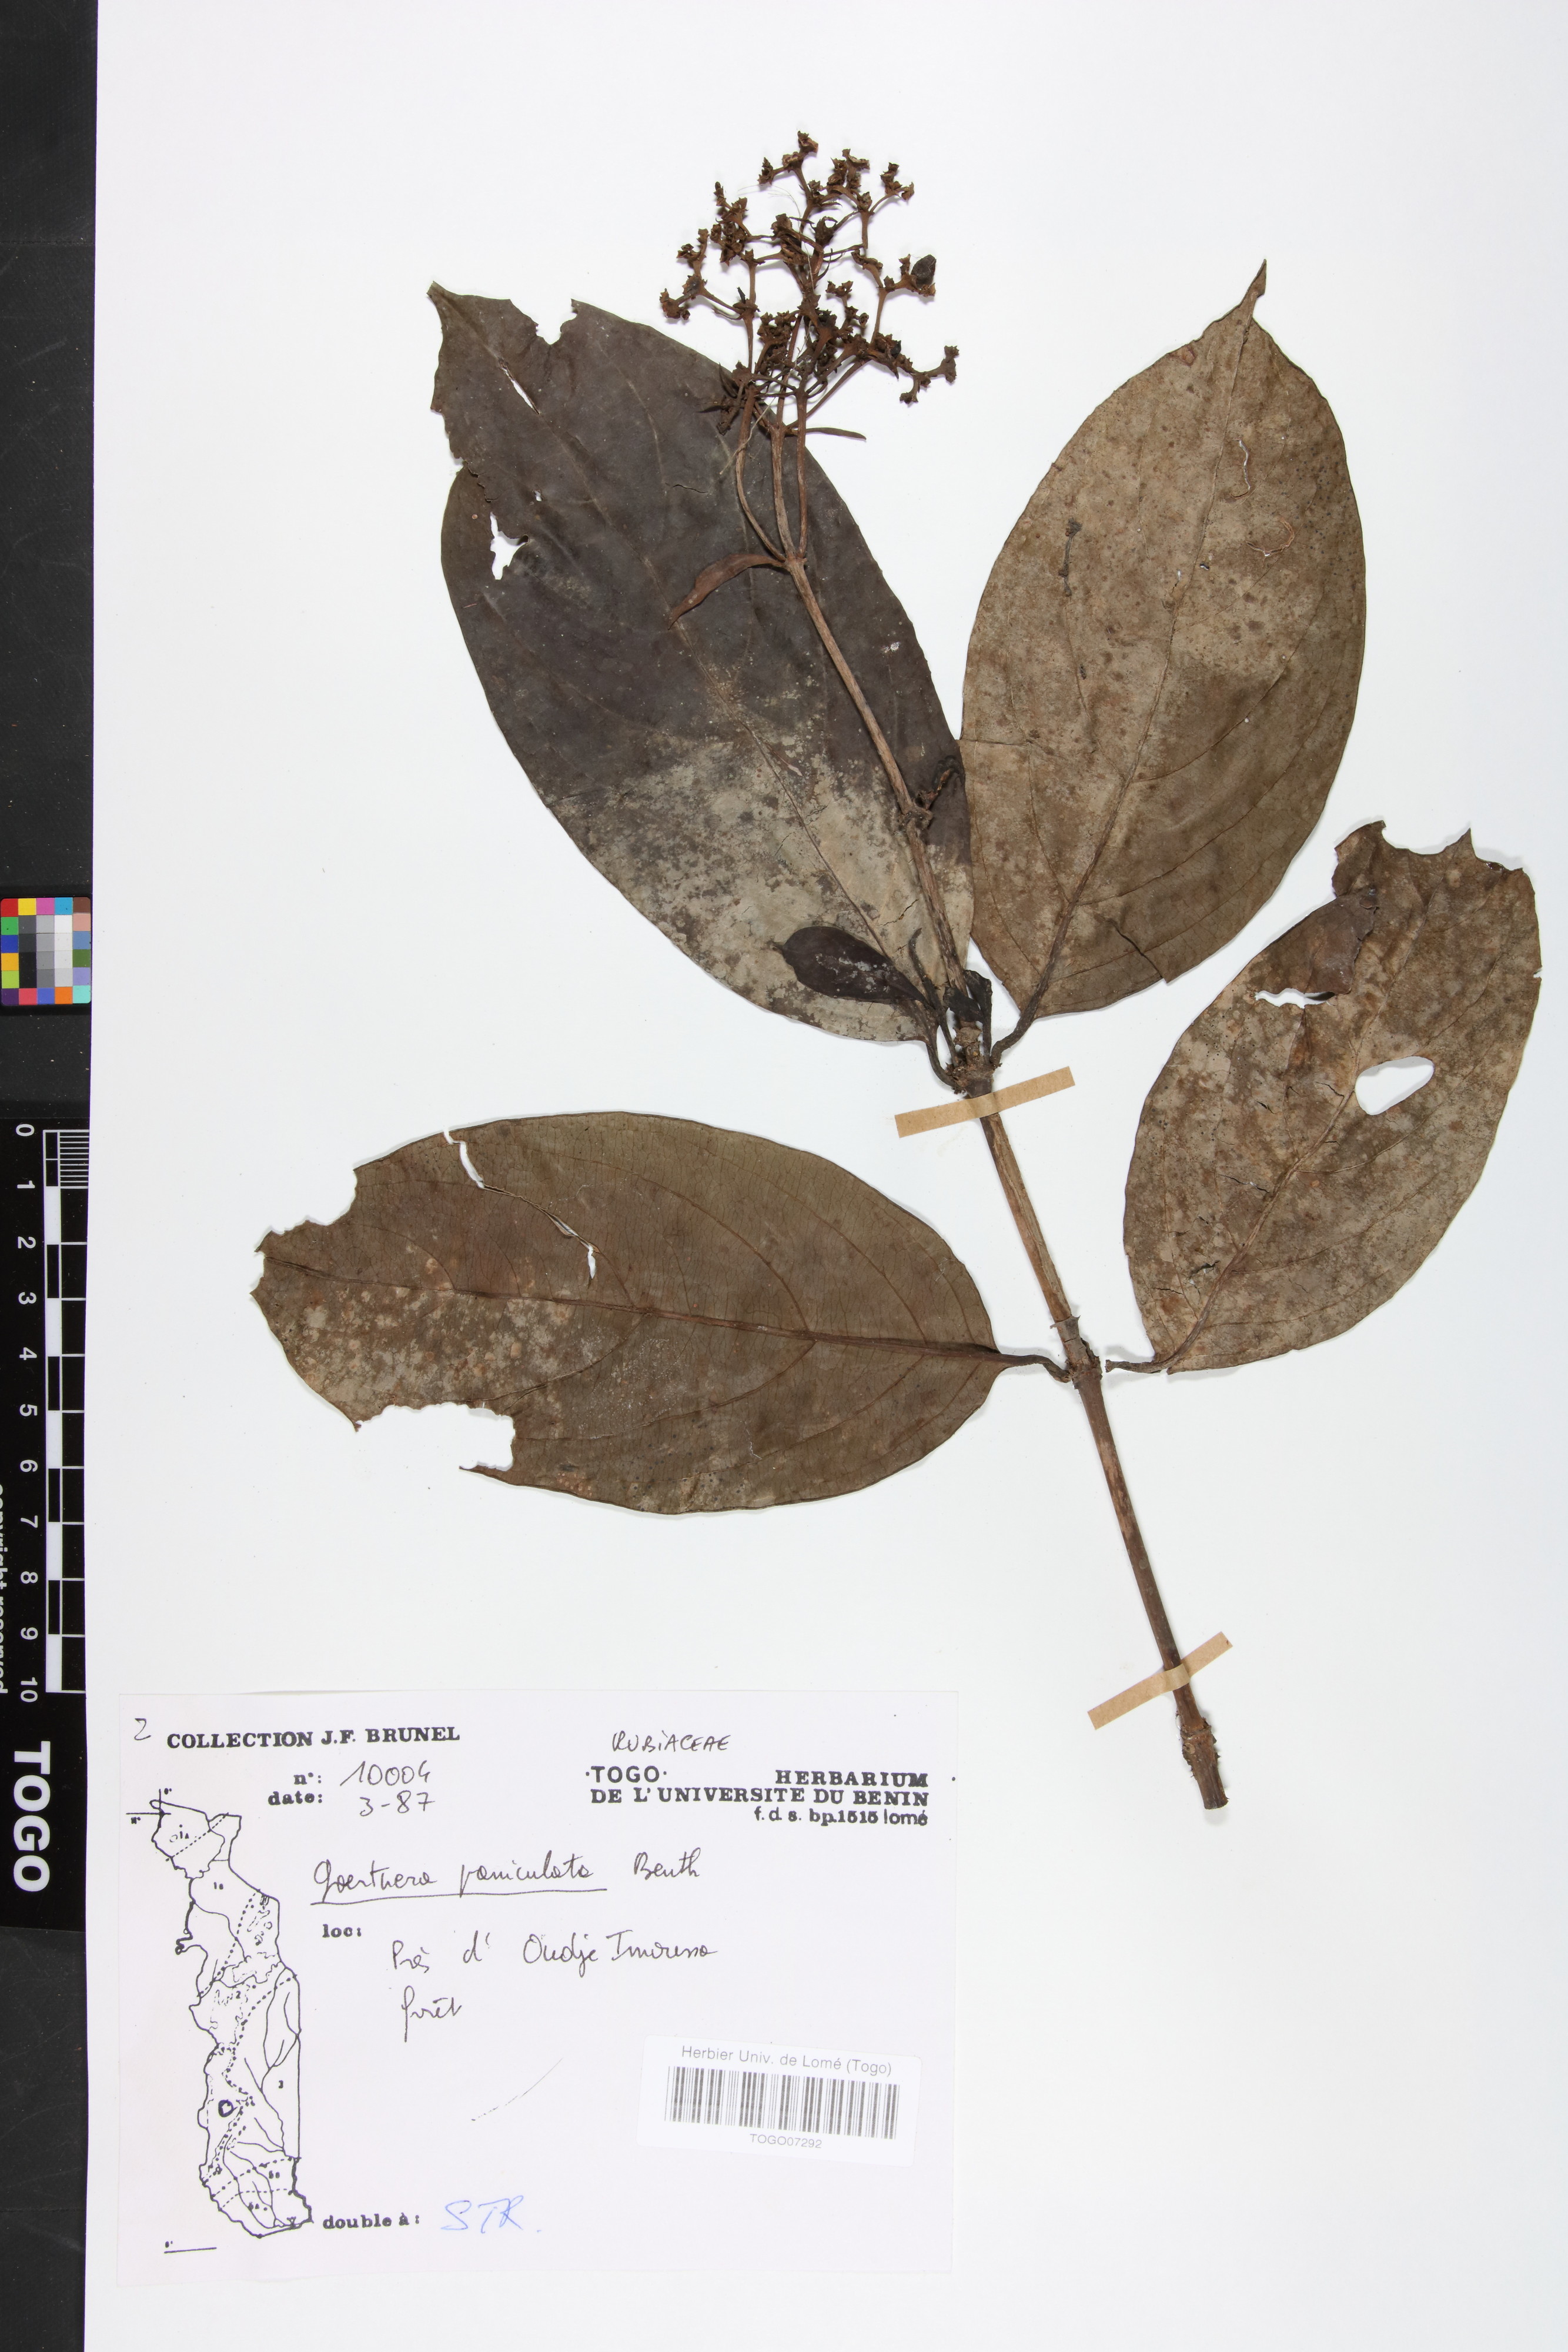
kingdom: Plantae
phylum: Tracheophyta
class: Magnoliopsida
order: Gentianales
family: Rubiaceae
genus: Gaertnera
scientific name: Gaertnera paniculata
